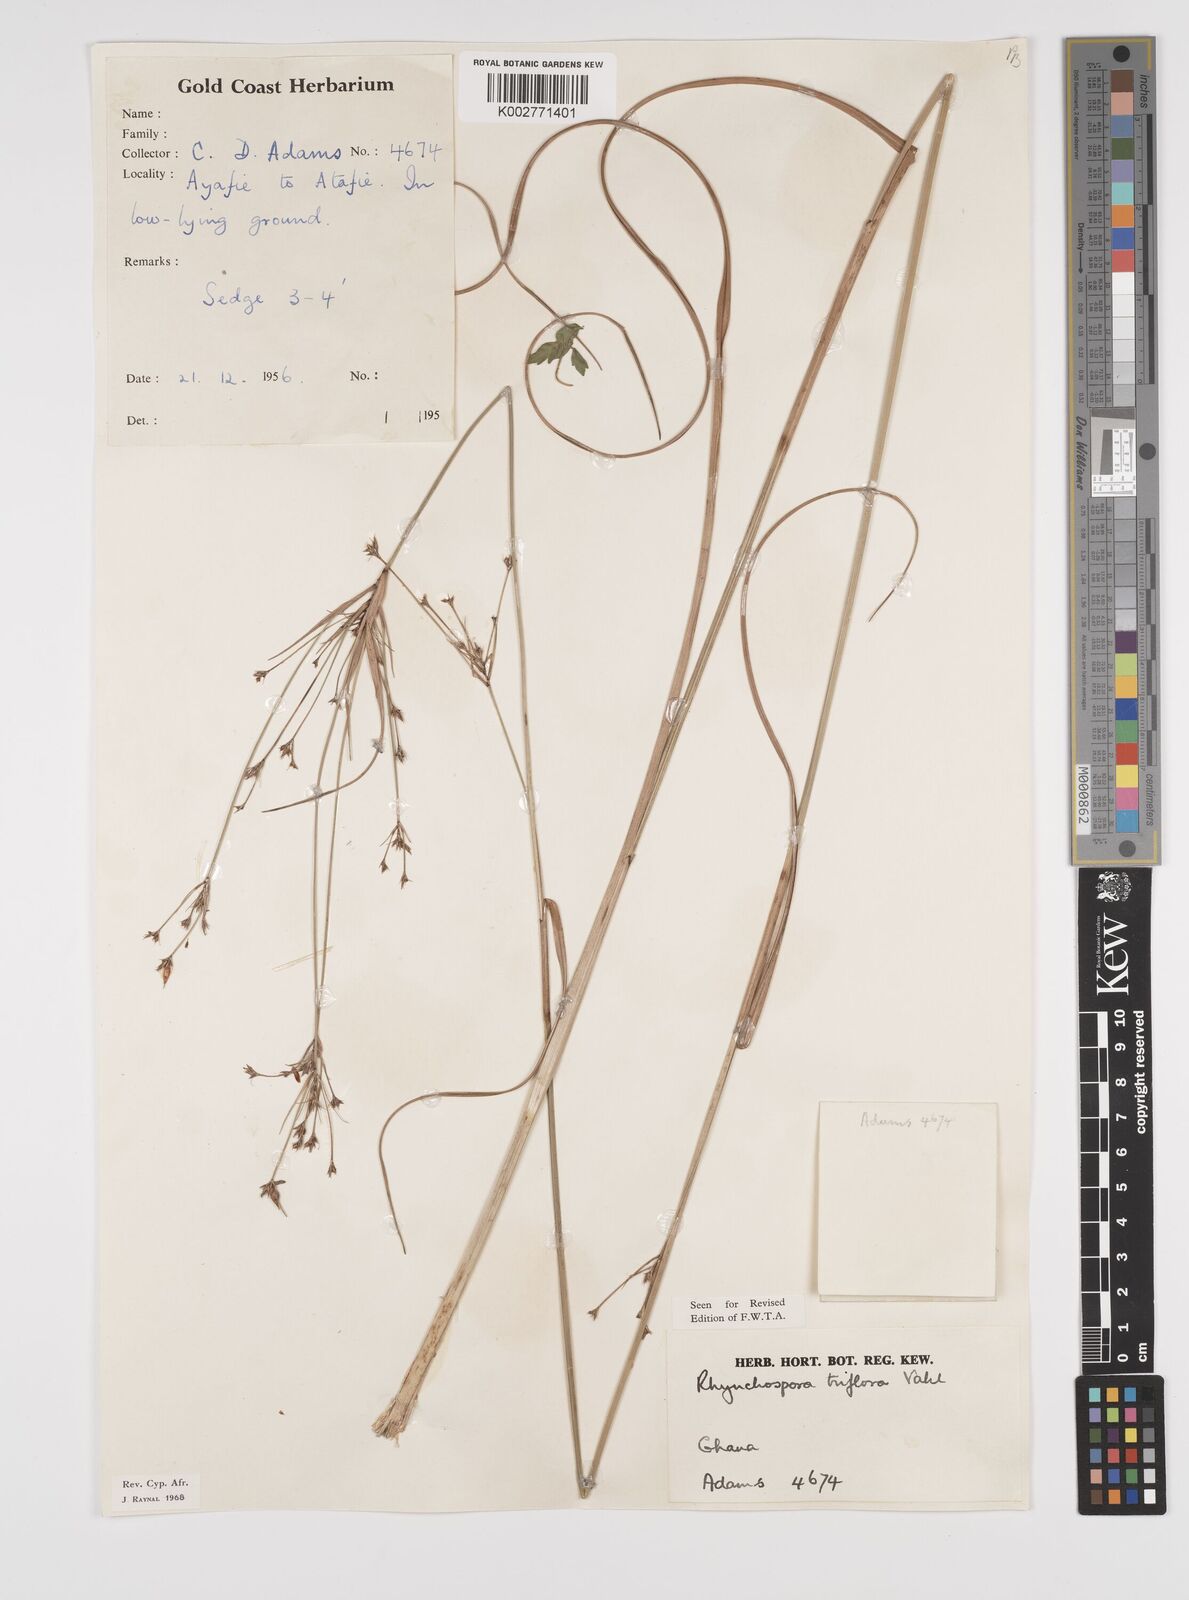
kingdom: Plantae
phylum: Tracheophyta
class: Liliopsida
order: Poales
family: Cyperaceae
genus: Rhynchospora
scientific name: Rhynchospora triflora
